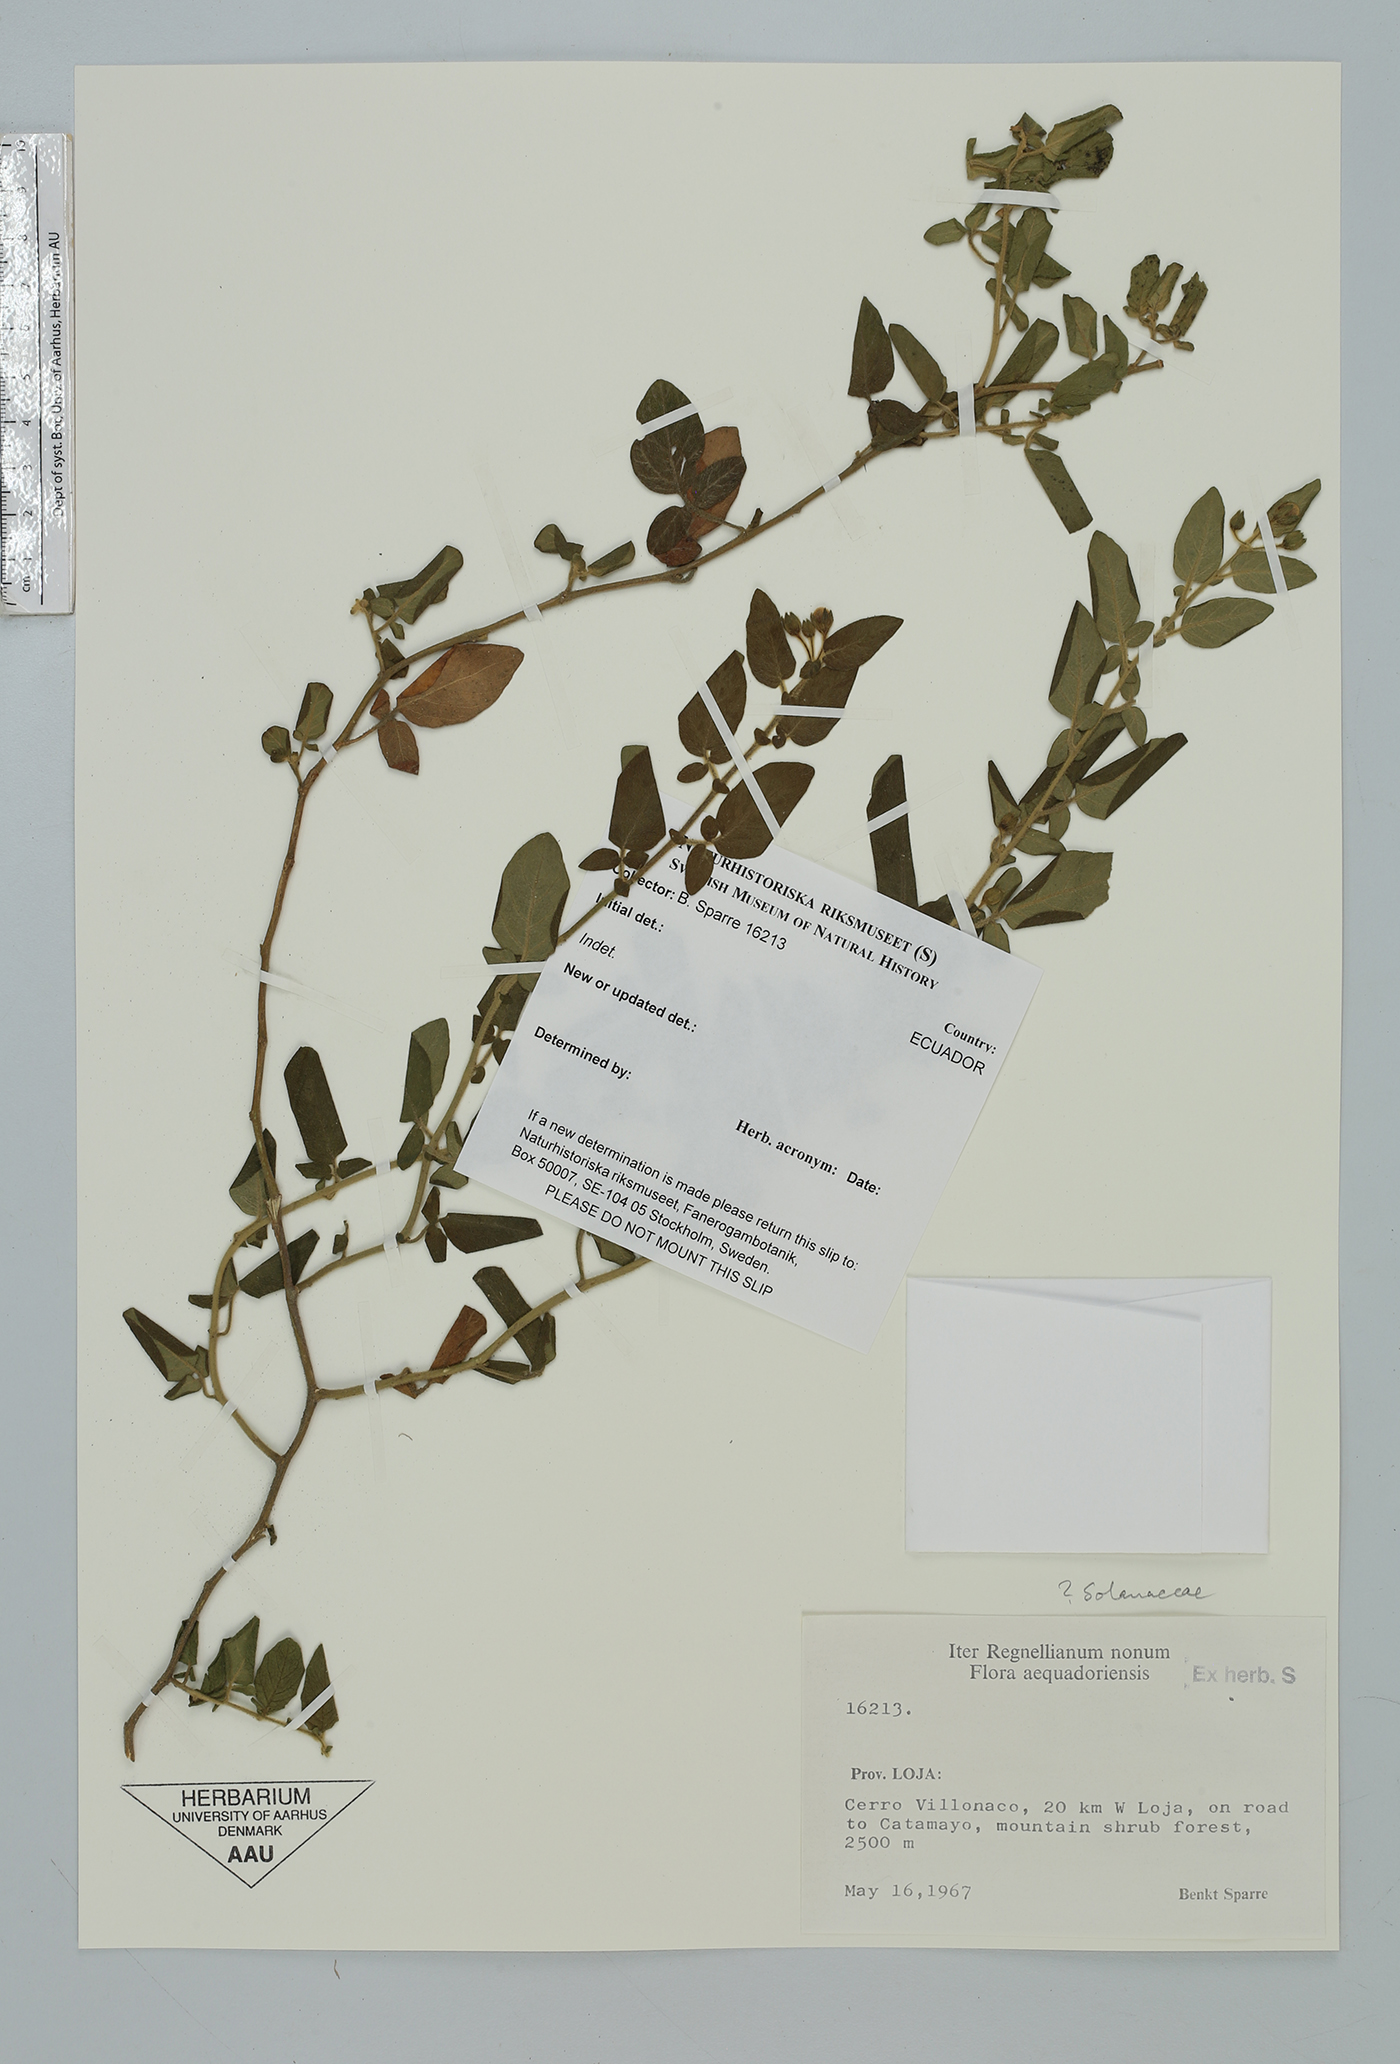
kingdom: Plantae
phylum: Tracheophyta
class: Magnoliopsida
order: Solanales
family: Solanaceae
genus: Solanum
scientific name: Solanum
